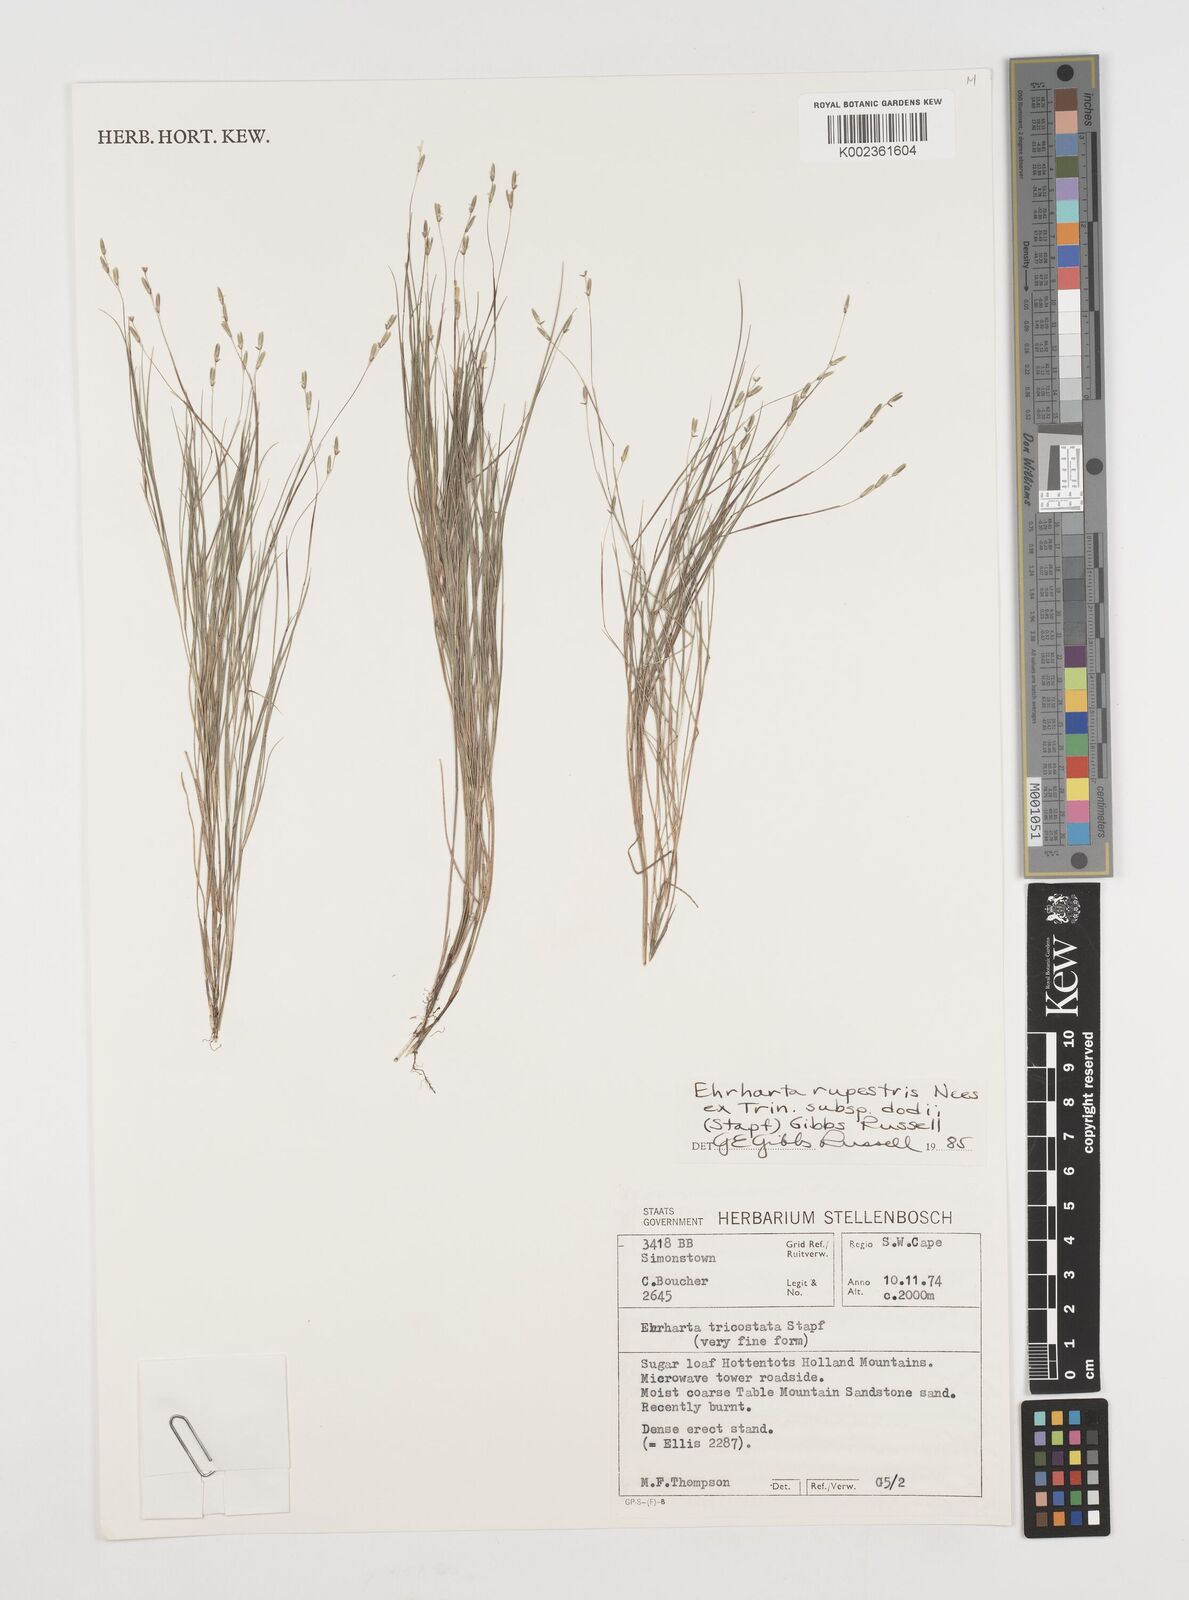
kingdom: Plantae
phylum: Tracheophyta
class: Liliopsida
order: Poales
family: Poaceae
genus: Ehrharta
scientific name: Ehrharta rupestris
